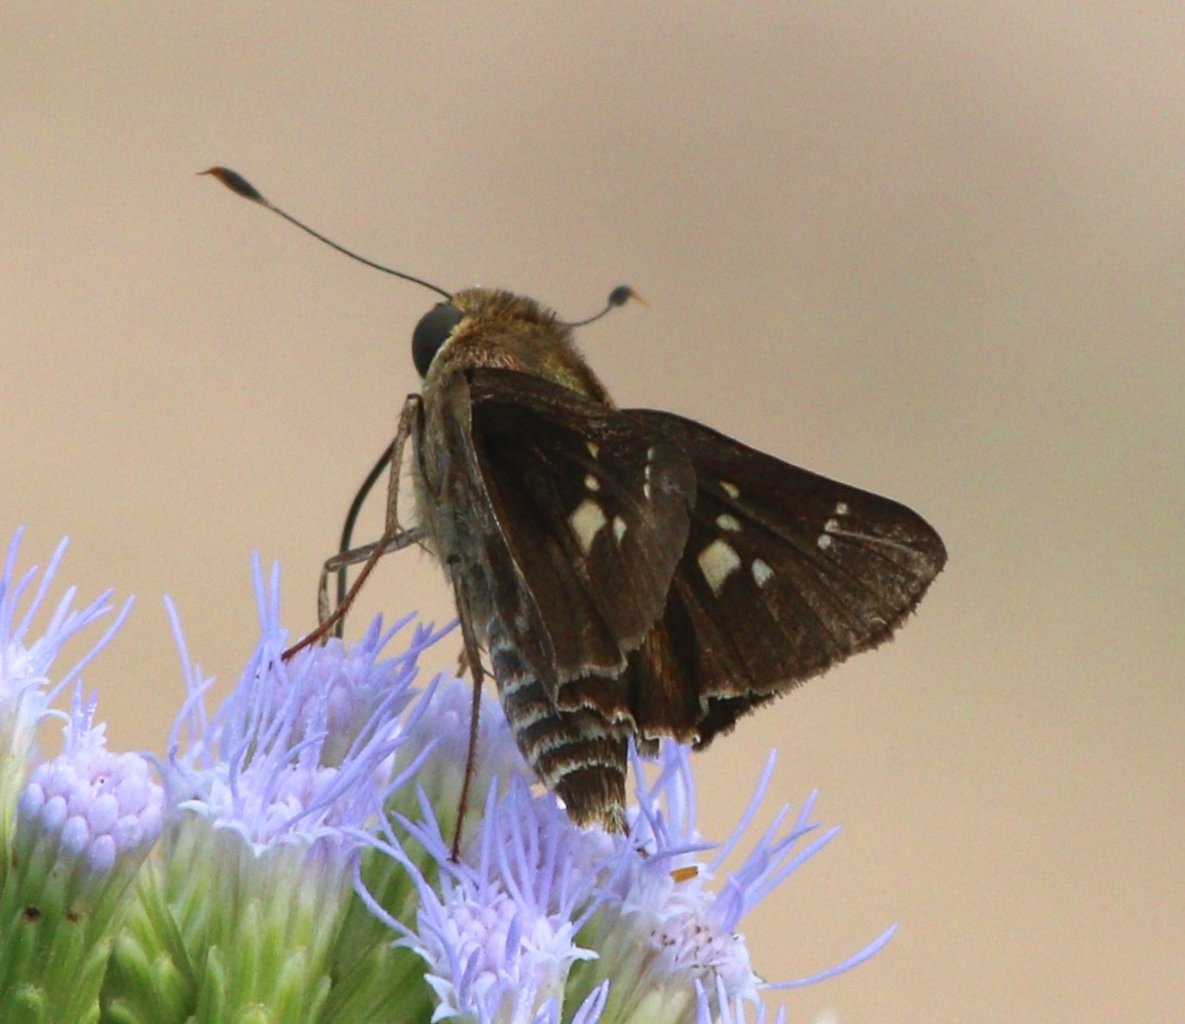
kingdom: Animalia
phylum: Arthropoda
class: Insecta
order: Lepidoptera
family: Hesperiidae
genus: Nyctelius
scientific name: Nyctelius nyctelius
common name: Violet-banded Skipper
